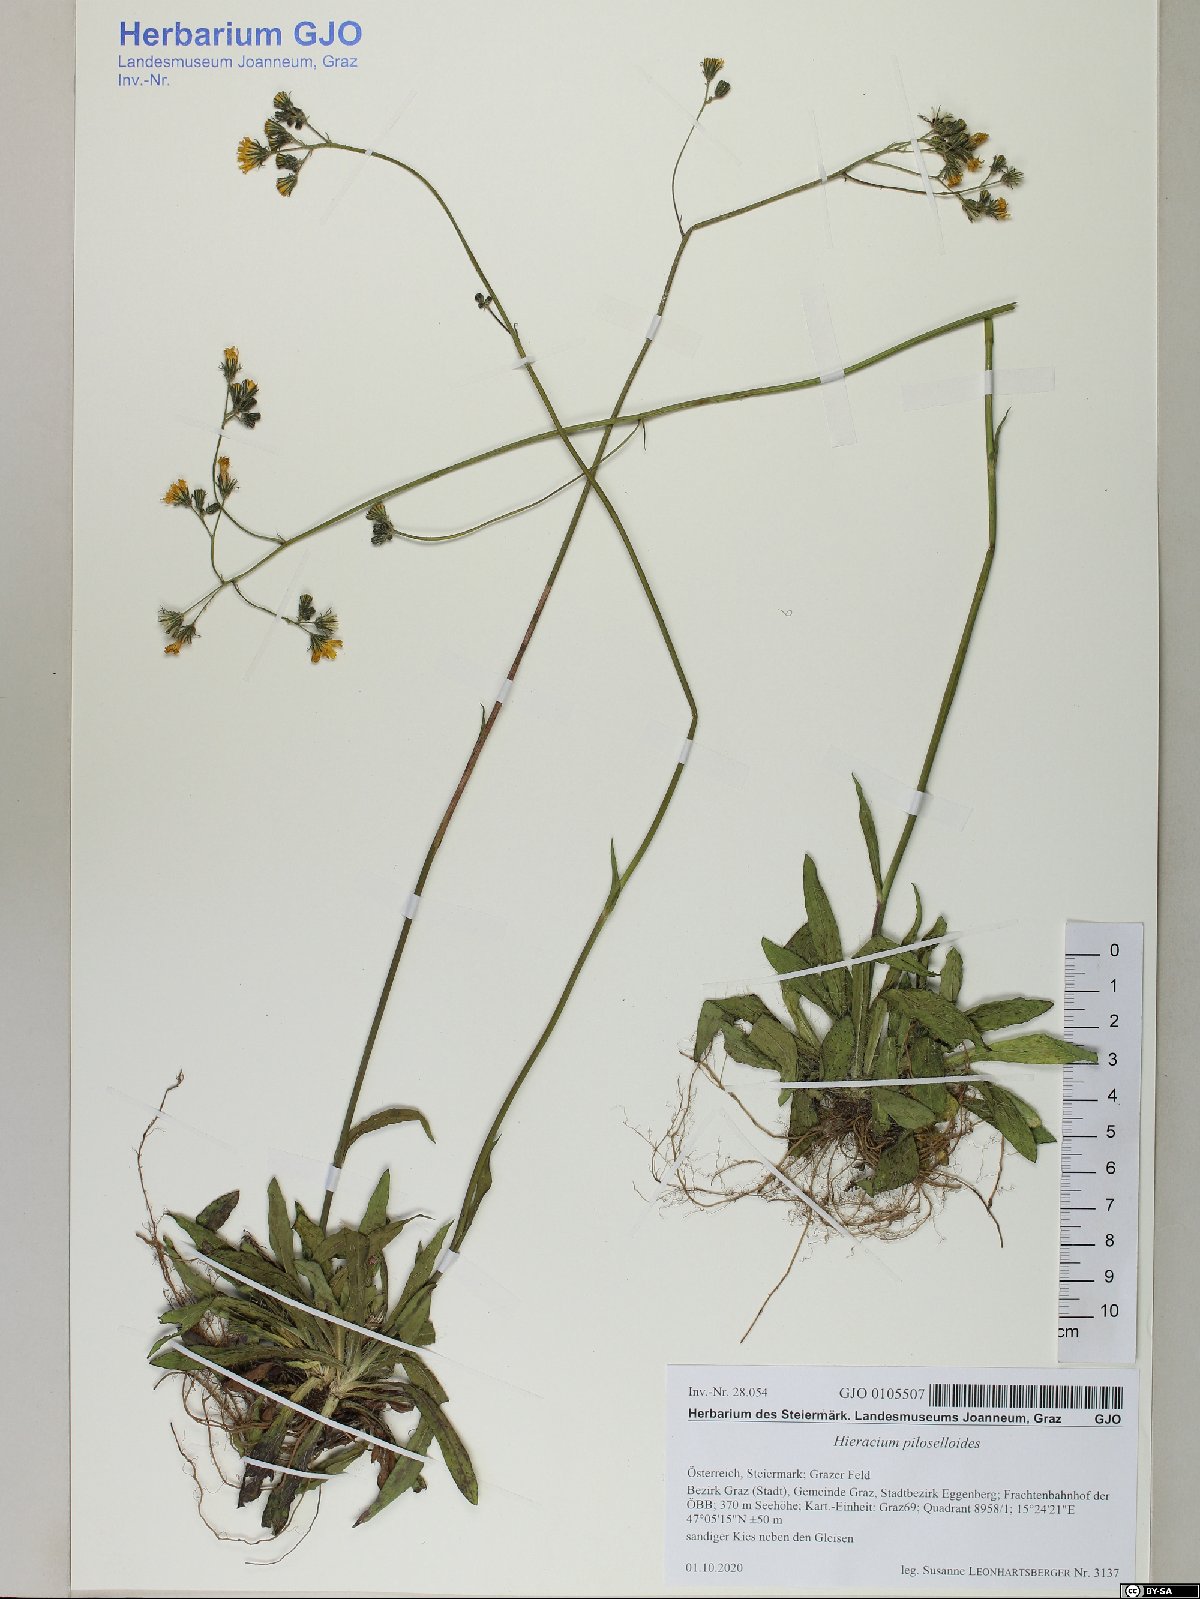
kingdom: Plantae
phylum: Tracheophyta
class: Magnoliopsida
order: Asterales
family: Asteraceae
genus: Pilosella
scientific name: Pilosella piloselloides
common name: Glaucous king-devil
